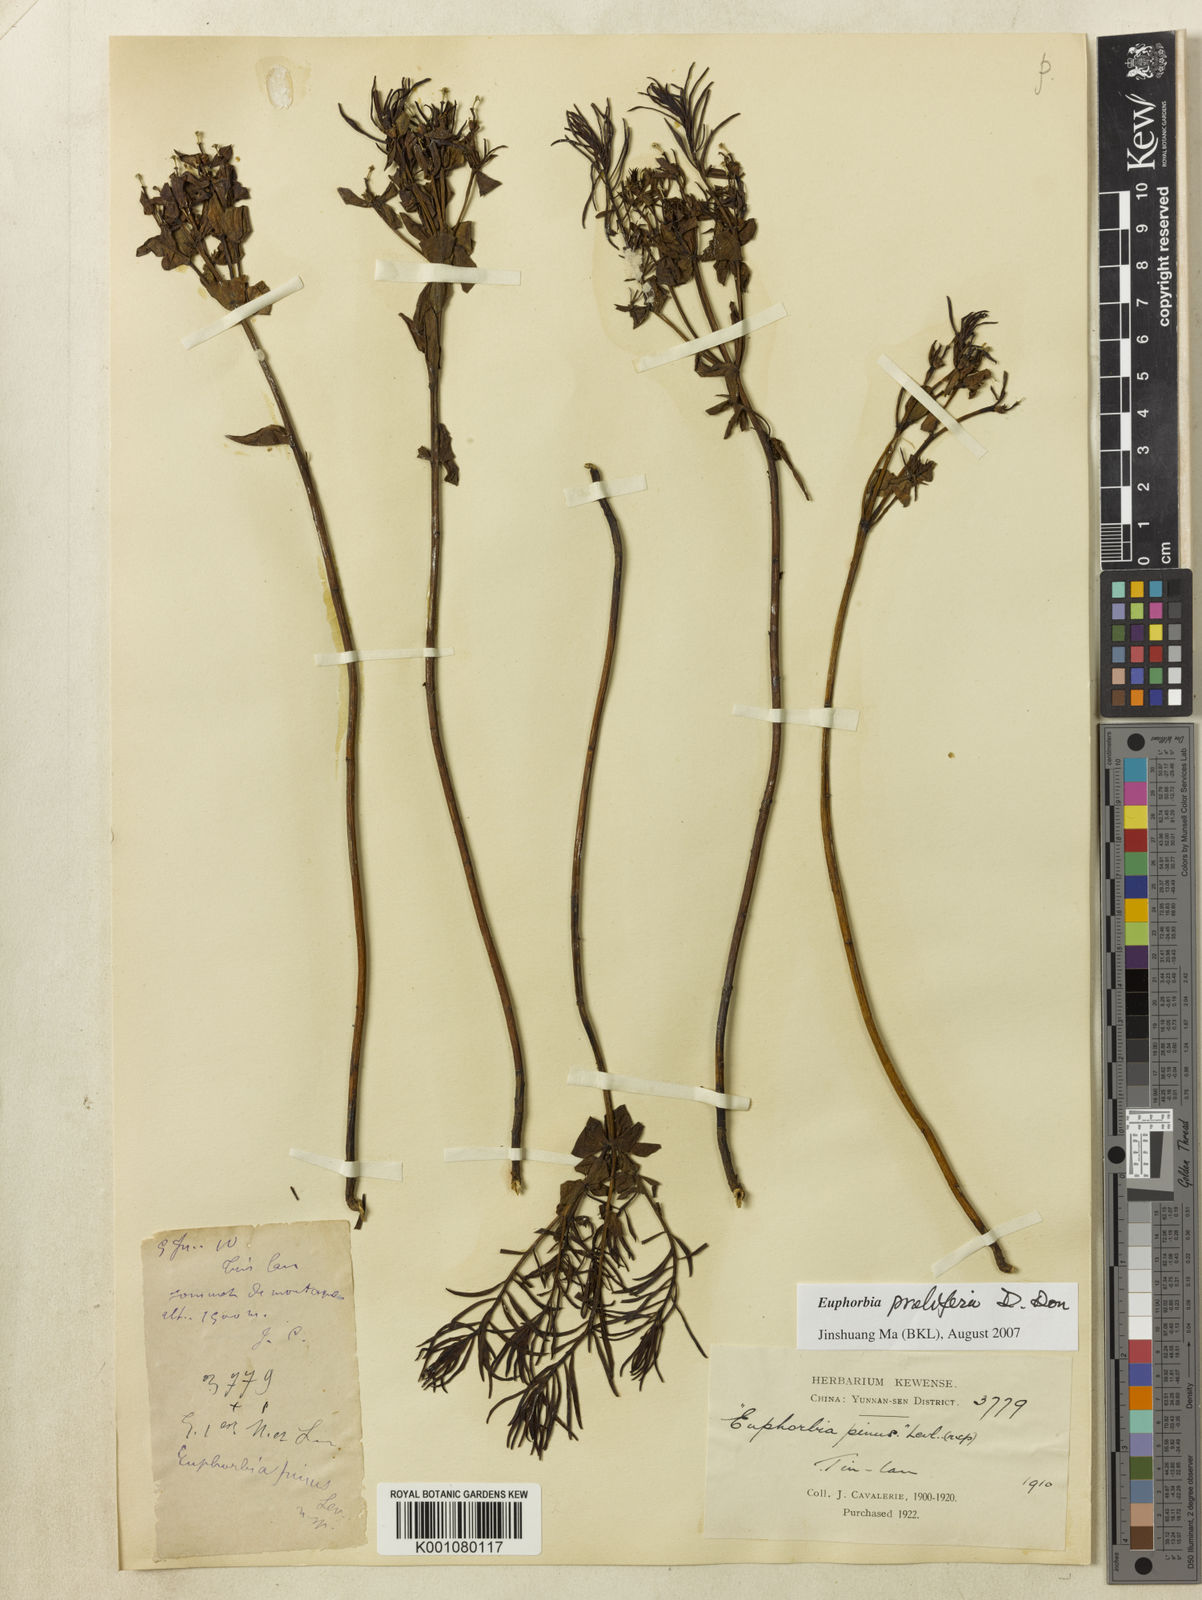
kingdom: Plantae
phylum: Tracheophyta
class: Magnoliopsida
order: Malpighiales
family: Euphorbiaceae
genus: Euphorbia
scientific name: Euphorbia
